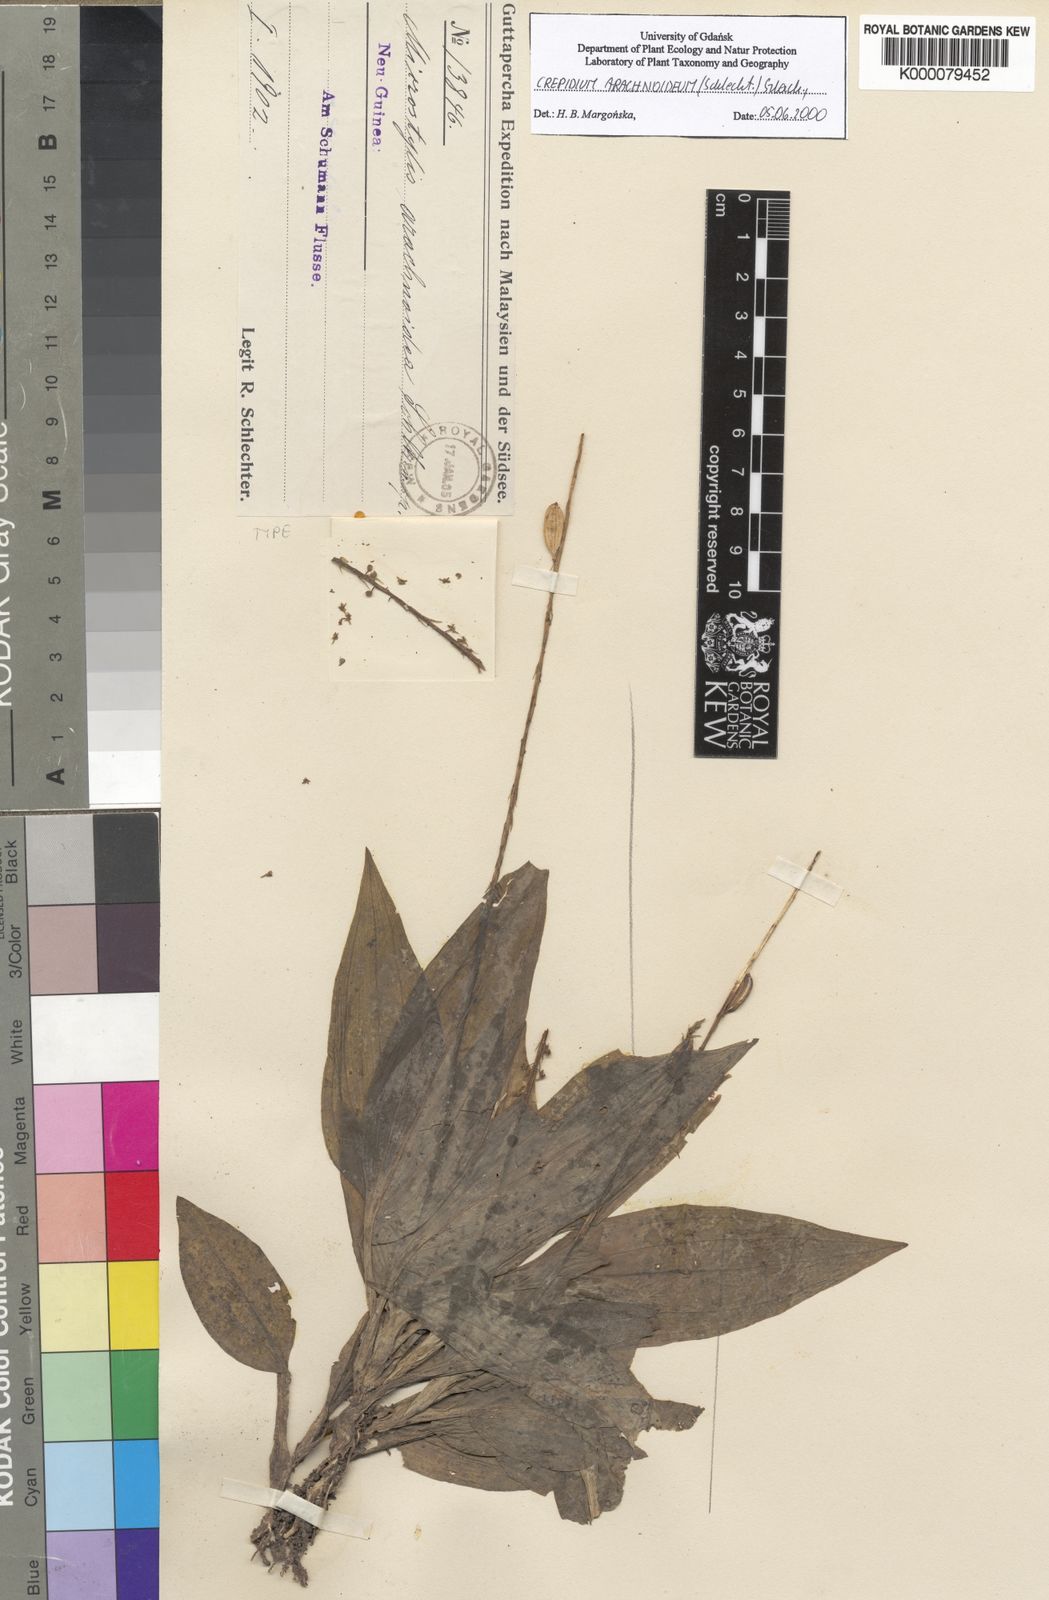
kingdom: Plantae
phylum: Tracheophyta
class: Liliopsida
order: Asparagales
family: Orchidaceae
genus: Crepidium
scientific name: Crepidium arachnoideum
